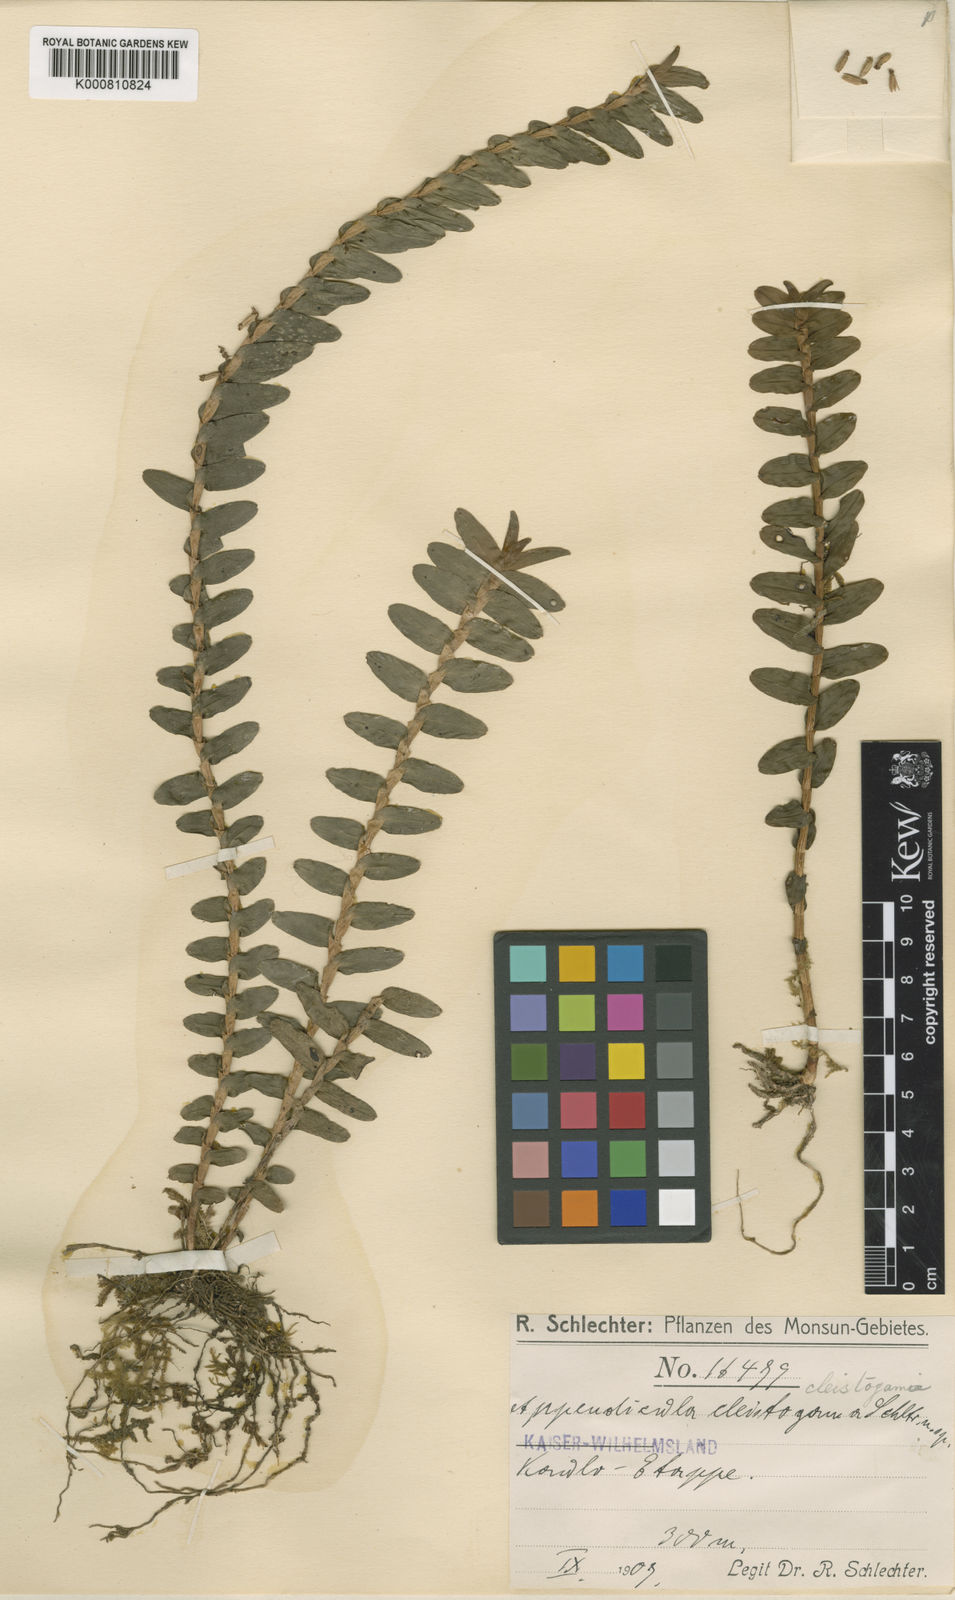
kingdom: Plantae
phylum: Tracheophyta
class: Liliopsida
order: Asparagales
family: Orchidaceae
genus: Appendicula
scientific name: Appendicula torricelliana
